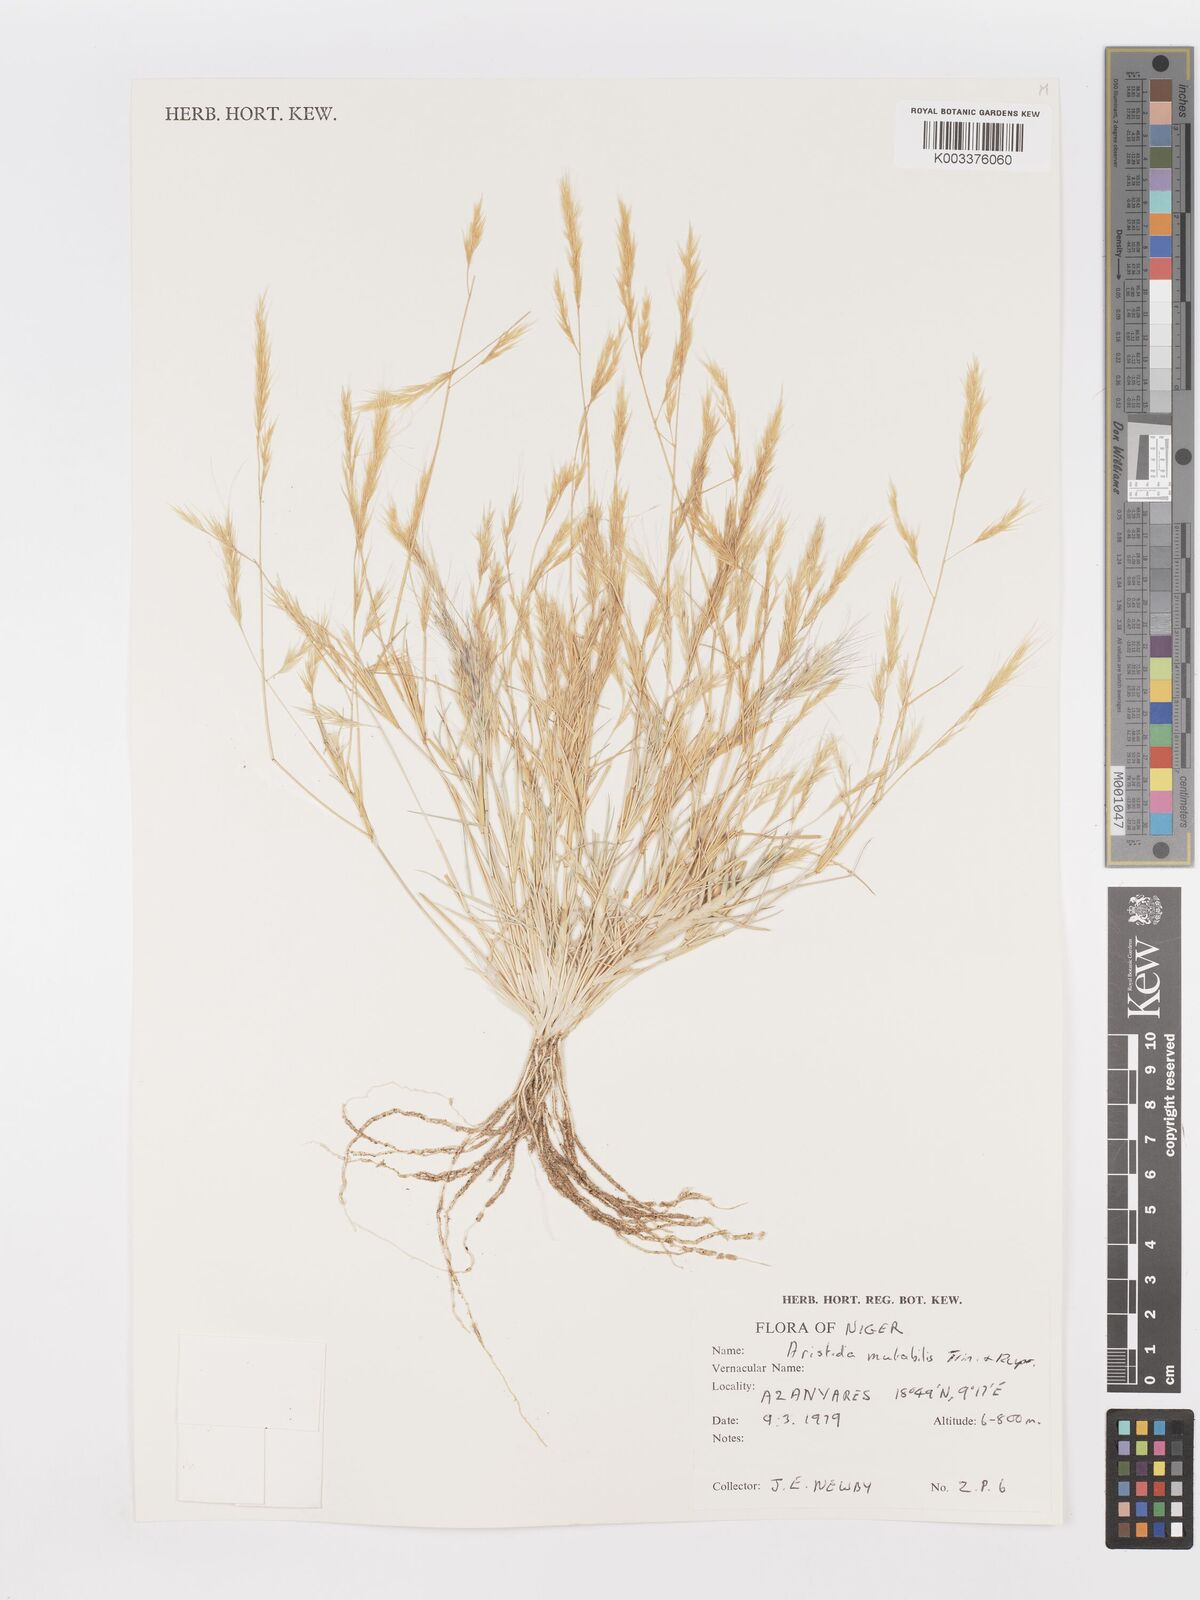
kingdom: Plantae
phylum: Tracheophyta
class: Liliopsida
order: Poales
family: Poaceae
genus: Aristida
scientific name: Aristida mutabilis
